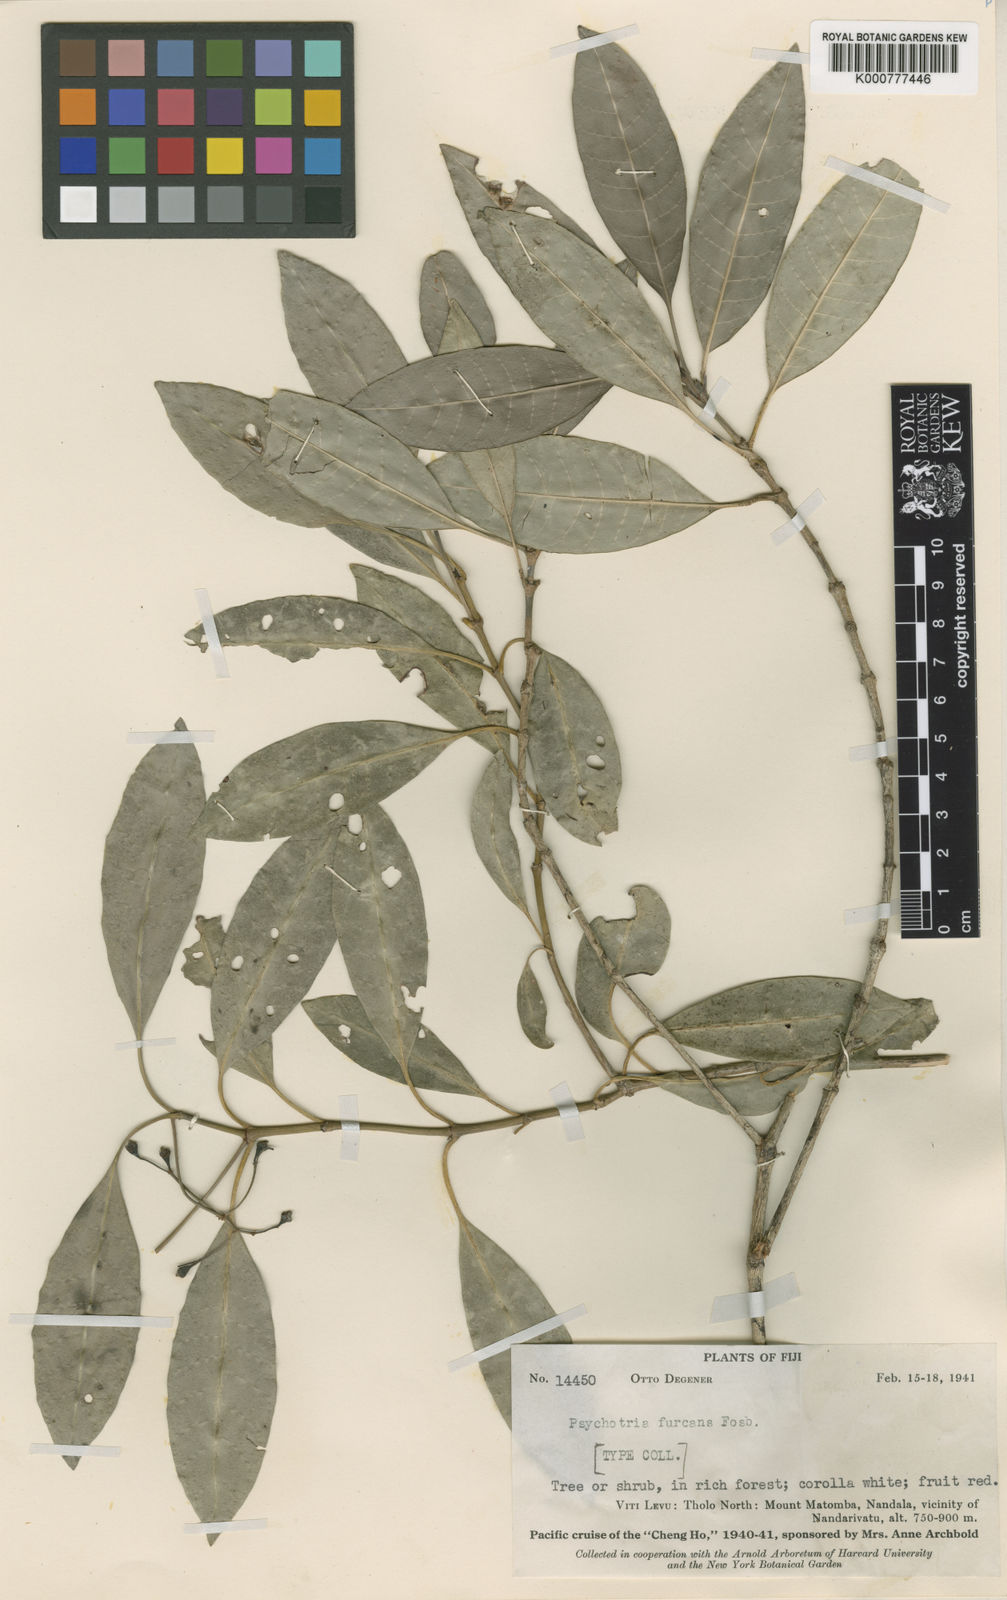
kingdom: Plantae
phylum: Tracheophyta
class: Magnoliopsida
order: Gentianales
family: Rubiaceae
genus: Psychotria
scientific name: Psychotria furcans
